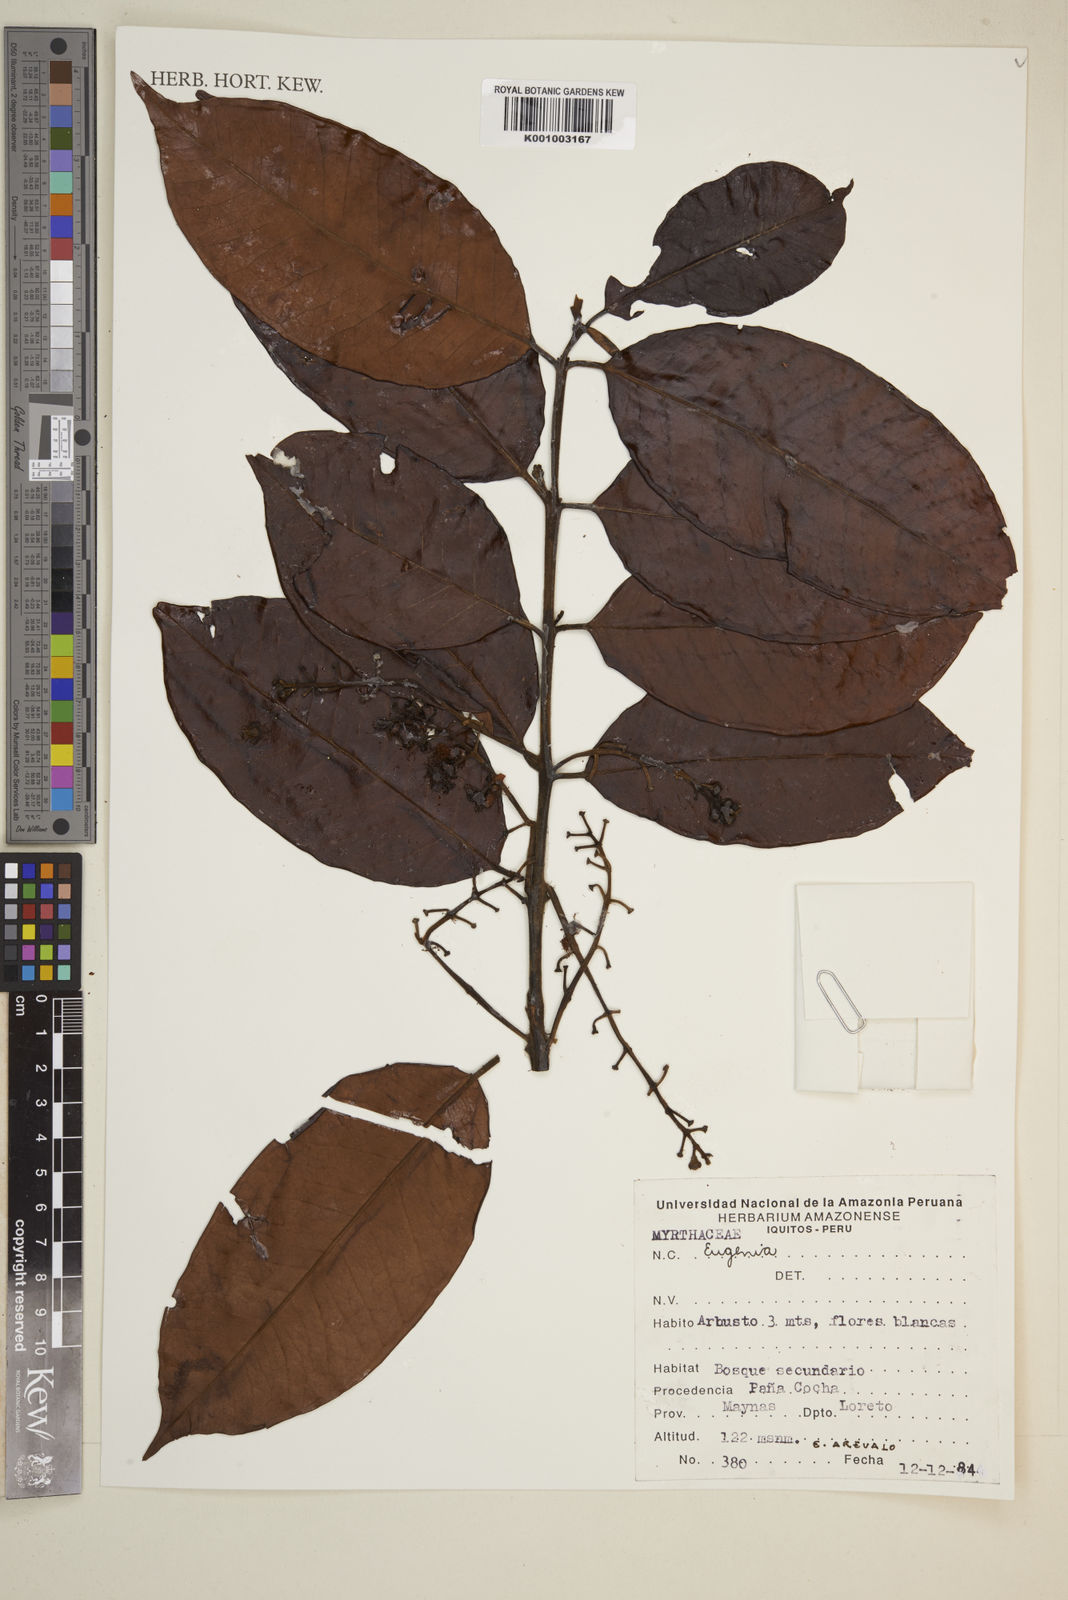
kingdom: Plantae
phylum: Tracheophyta
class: Magnoliopsida
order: Myrtales
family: Myrtaceae
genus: Eugenia
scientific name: Eugenia
